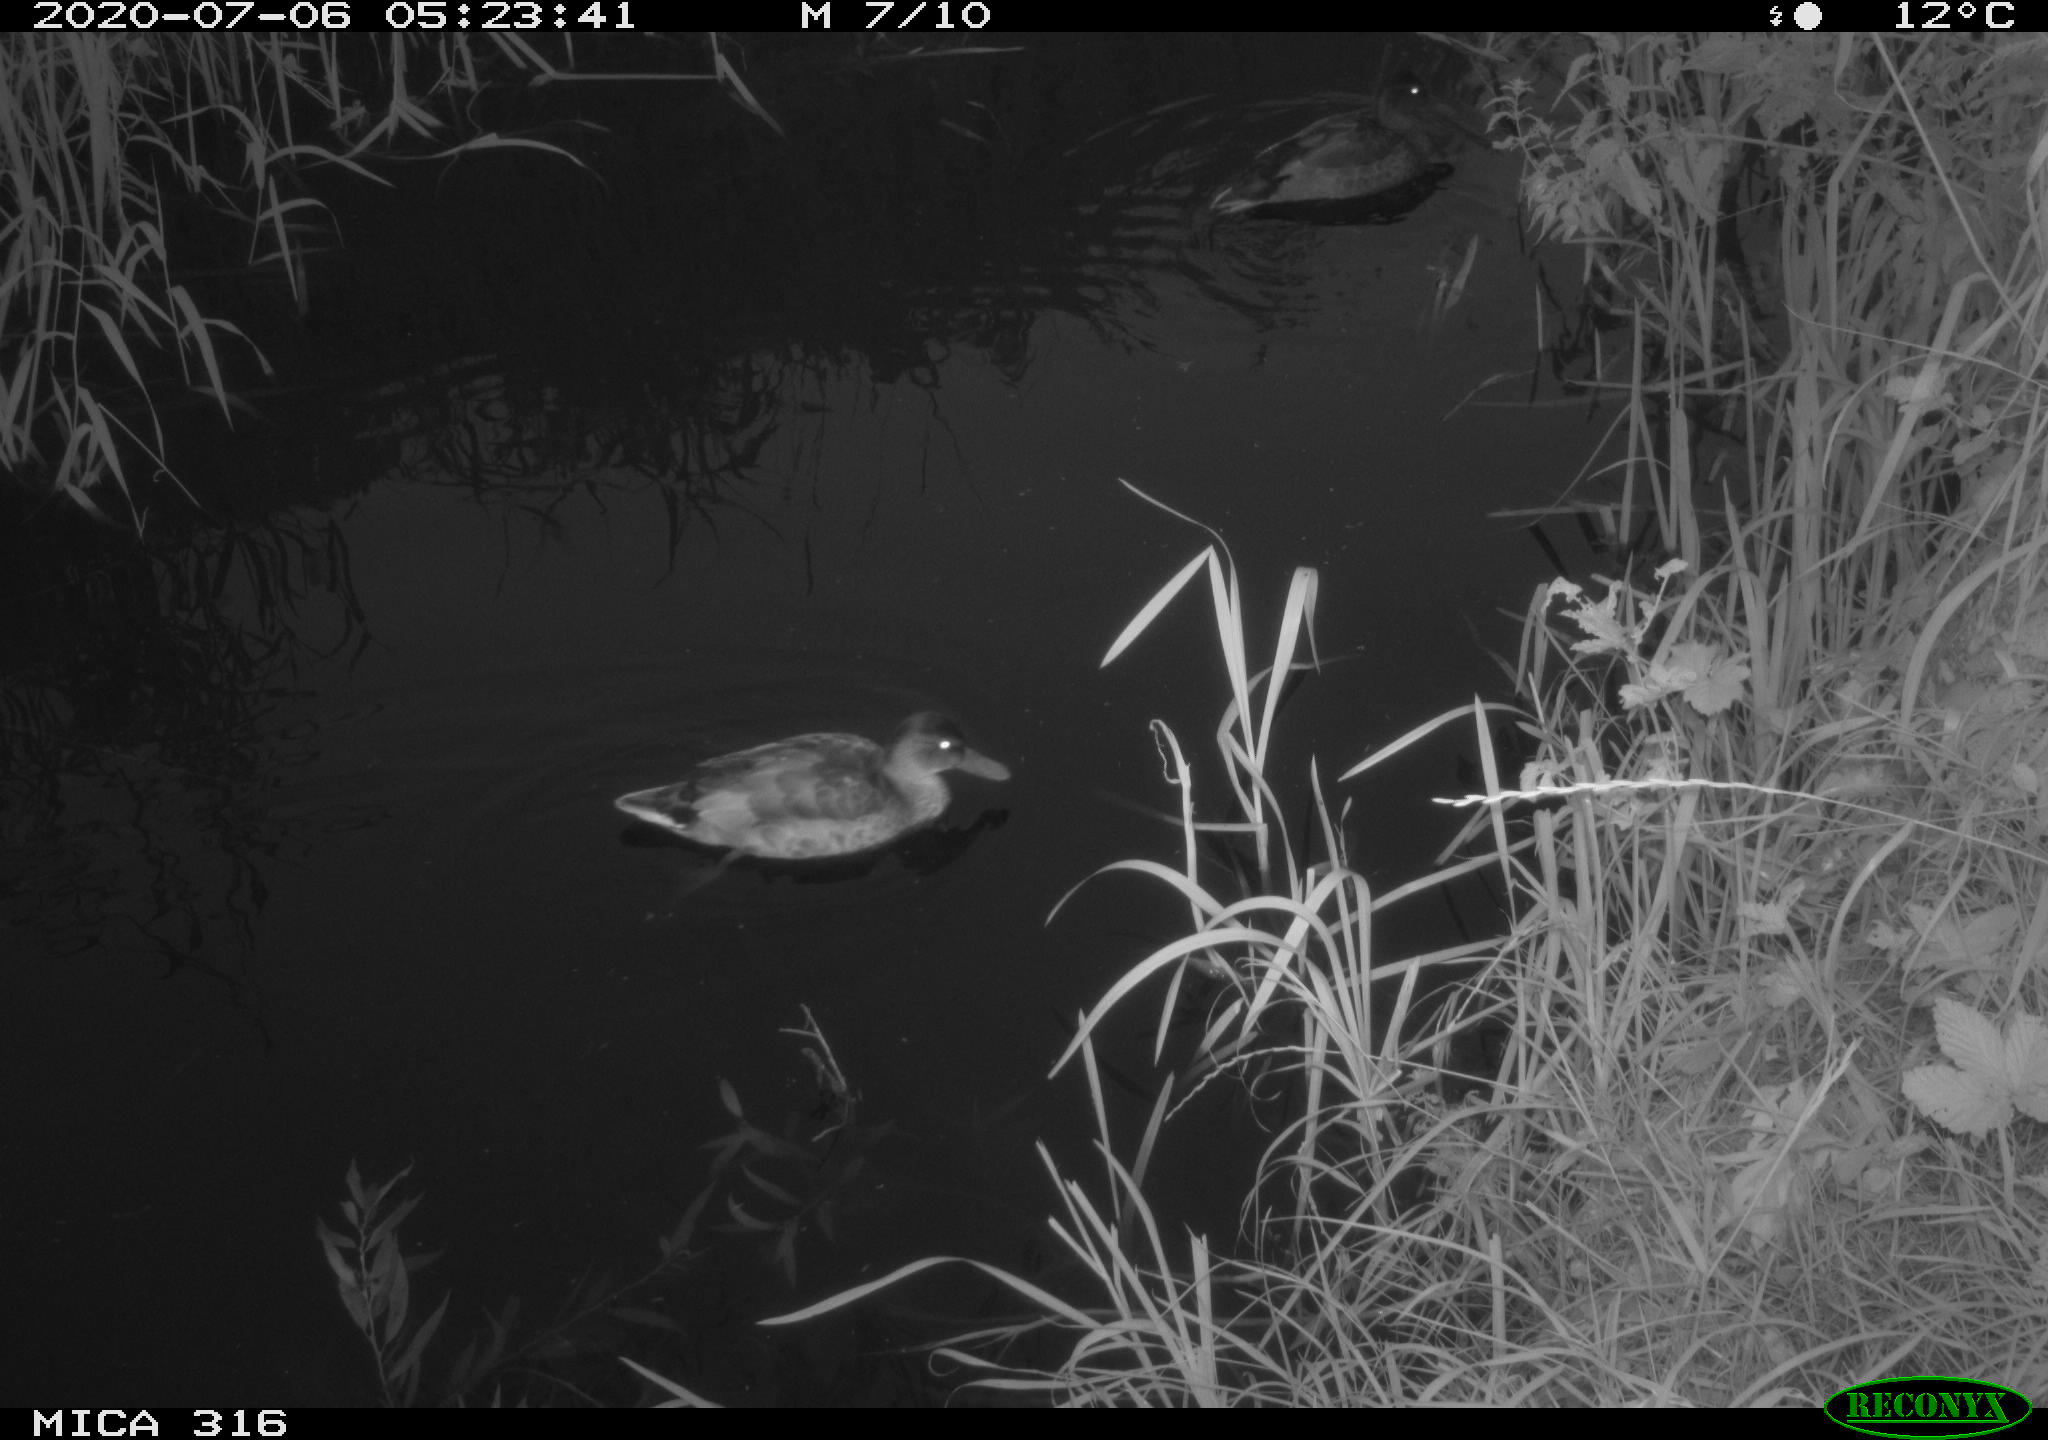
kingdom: Animalia
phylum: Chordata
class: Aves
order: Anseriformes
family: Anatidae
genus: Anas
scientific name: Anas platyrhynchos
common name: Mallard
